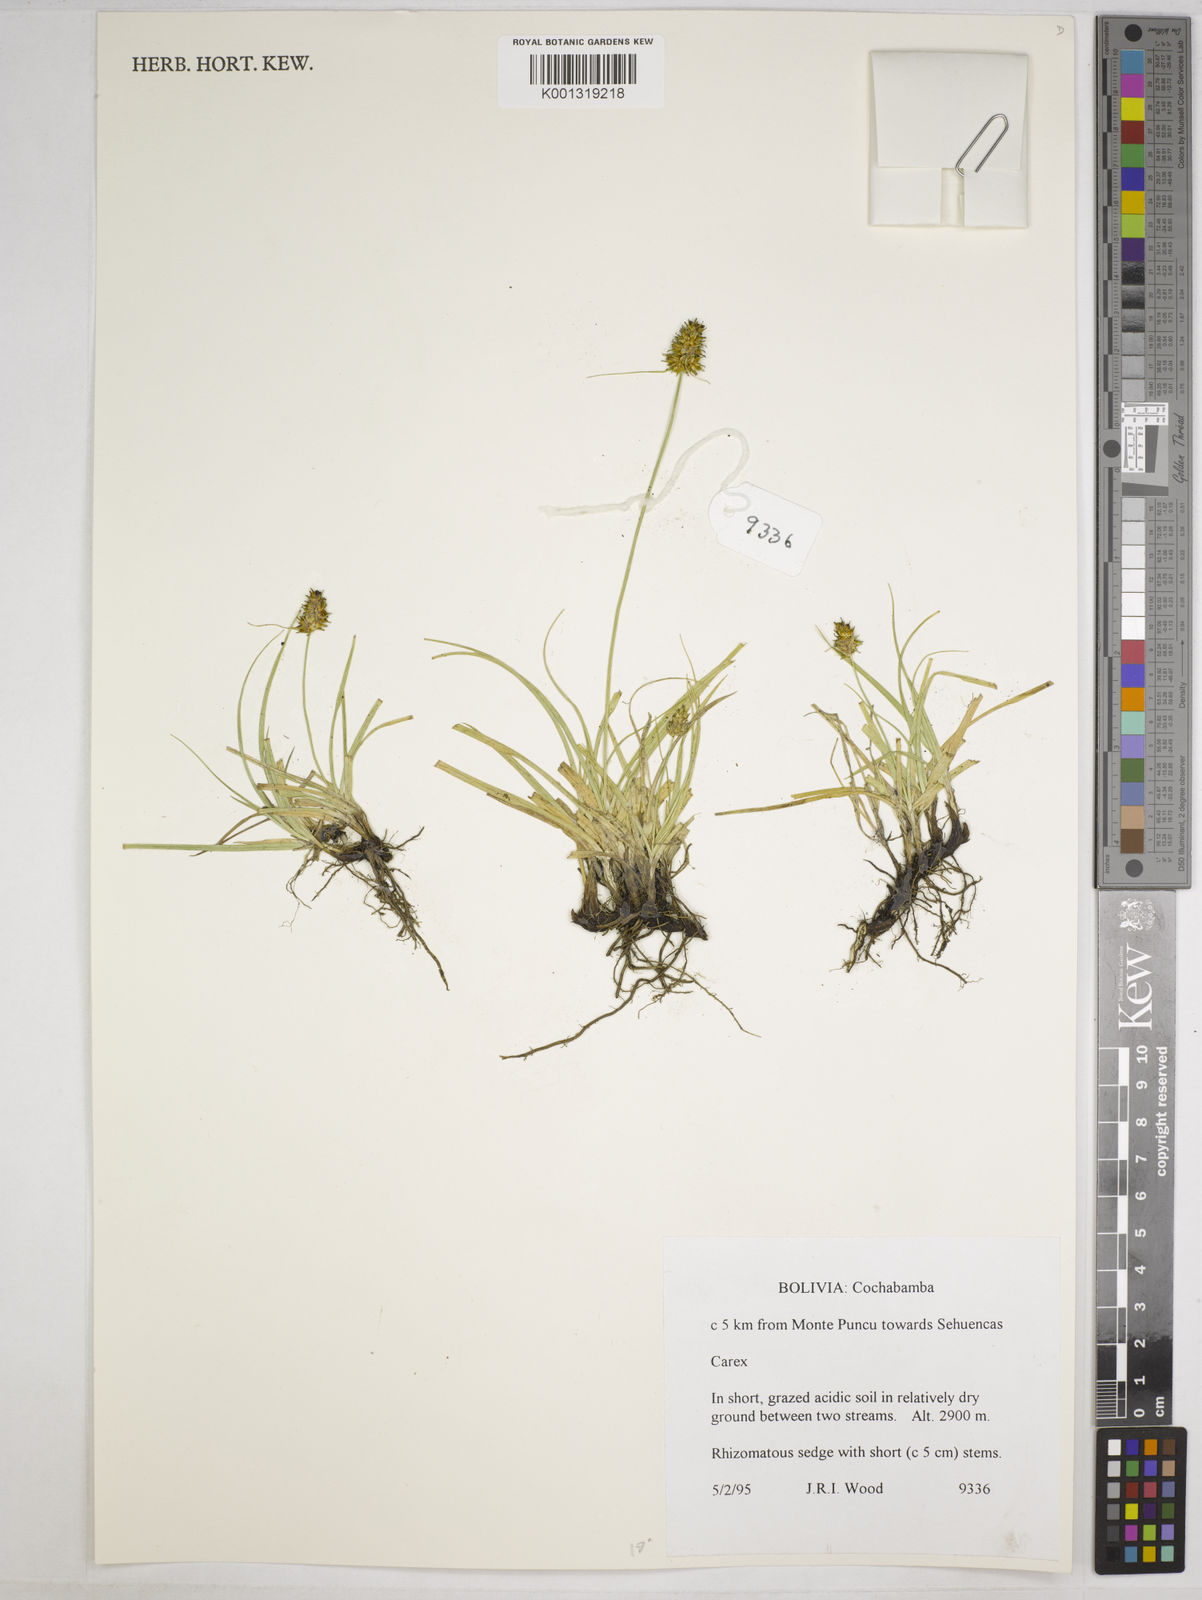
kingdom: Plantae
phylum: Tracheophyta
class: Liliopsida
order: Poales
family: Cyperaceae
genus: Carex
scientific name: Carex sororia
